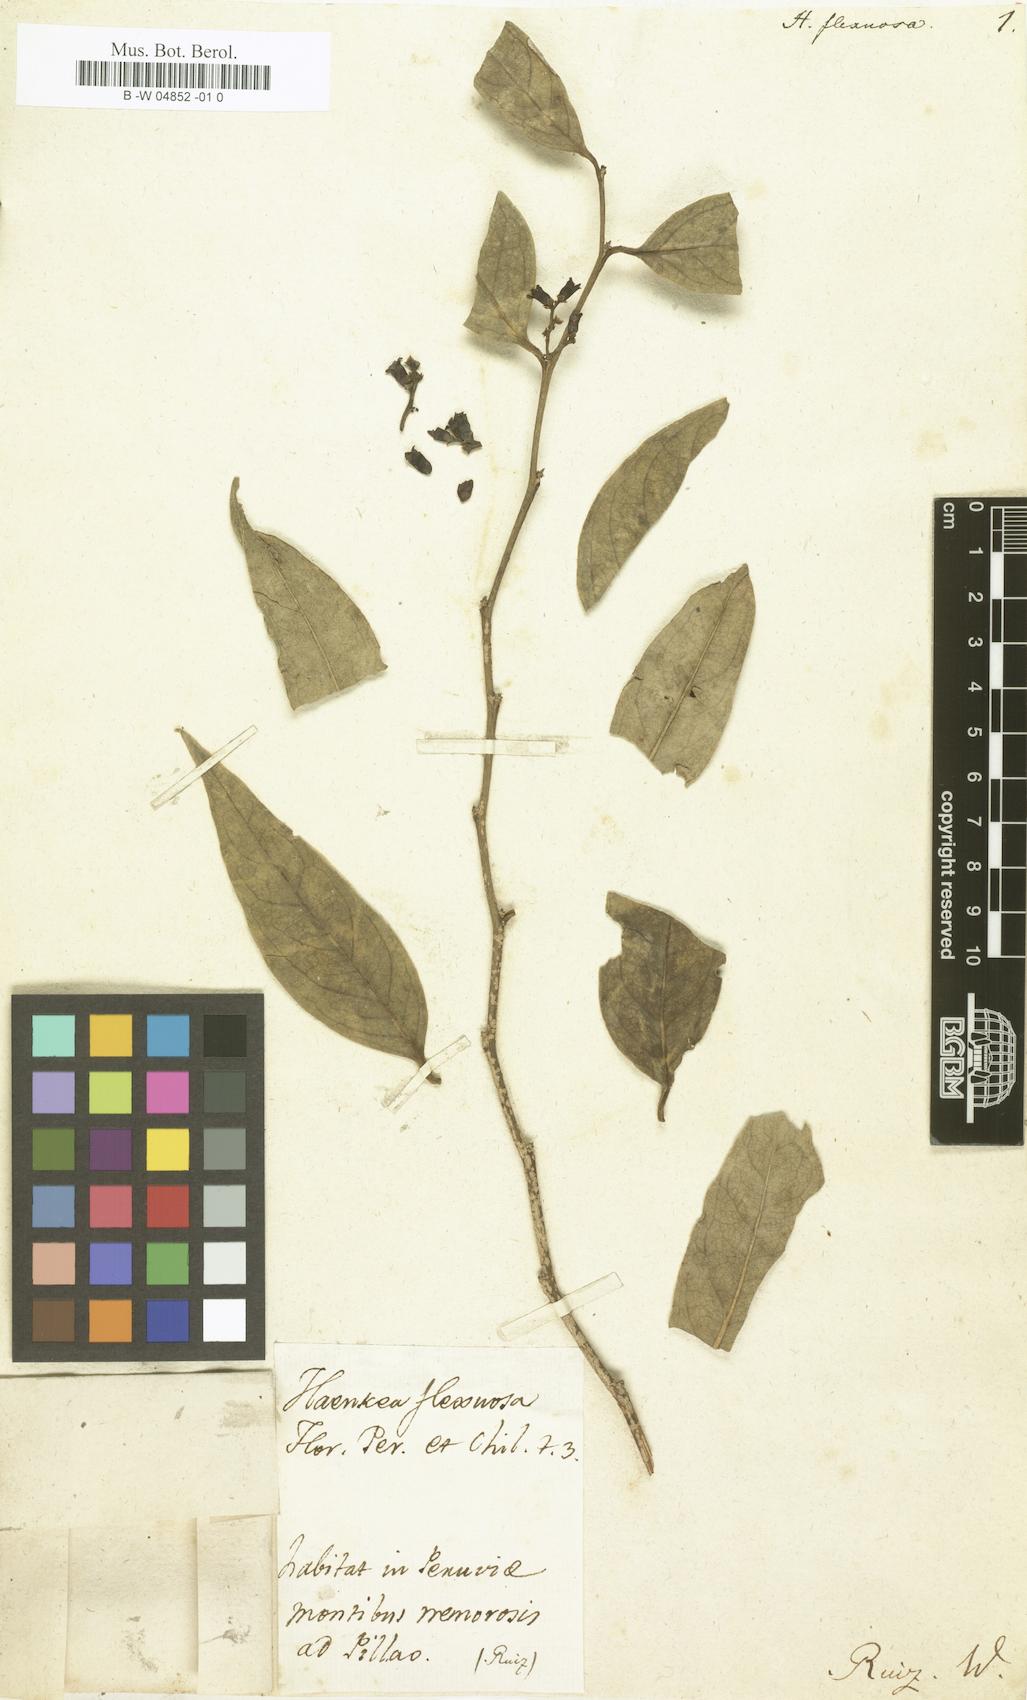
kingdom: Plantae
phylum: Tracheophyta
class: Magnoliopsida
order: Santalales
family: Schoepfiaceae
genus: Schoepfia
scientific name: Schoepfia flexuosa
